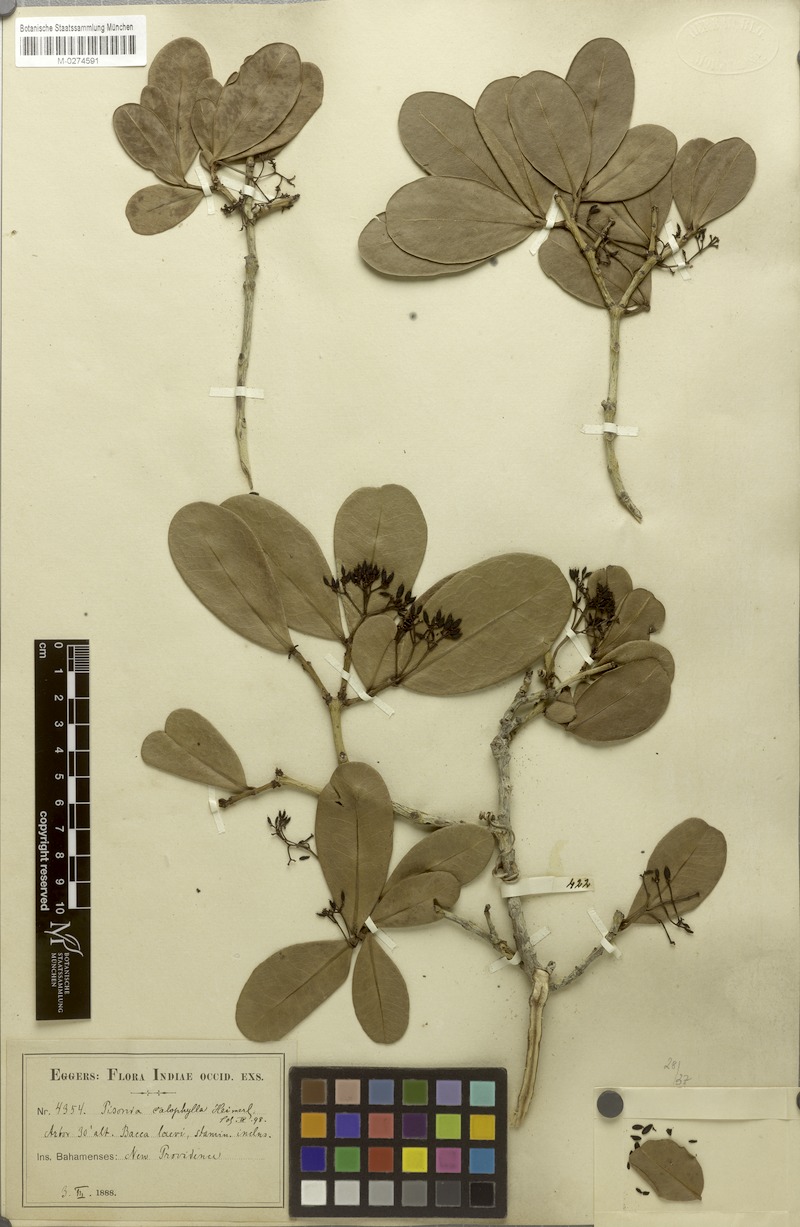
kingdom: Plantae
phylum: Tracheophyta
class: Magnoliopsida
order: Caryophyllales
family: Nyctaginaceae
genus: Guapira
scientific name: Guapira obtusata
